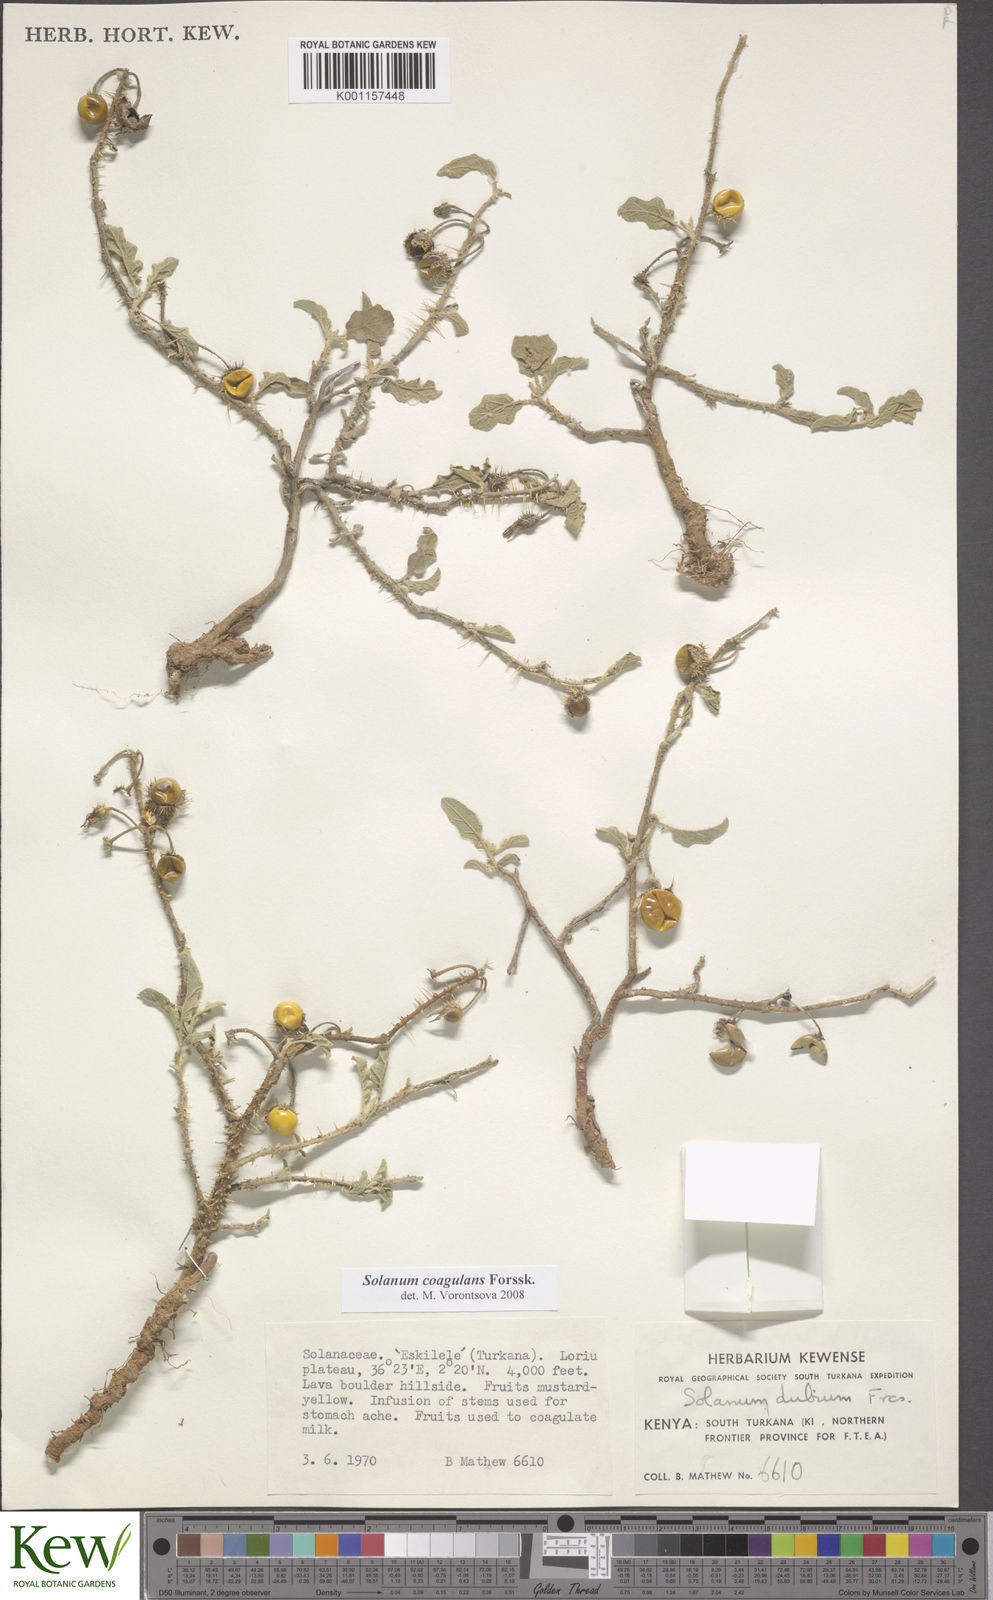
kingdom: Plantae
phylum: Tracheophyta
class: Magnoliopsida
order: Solanales
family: Solanaceae
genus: Solanum
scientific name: Solanum coagulans
